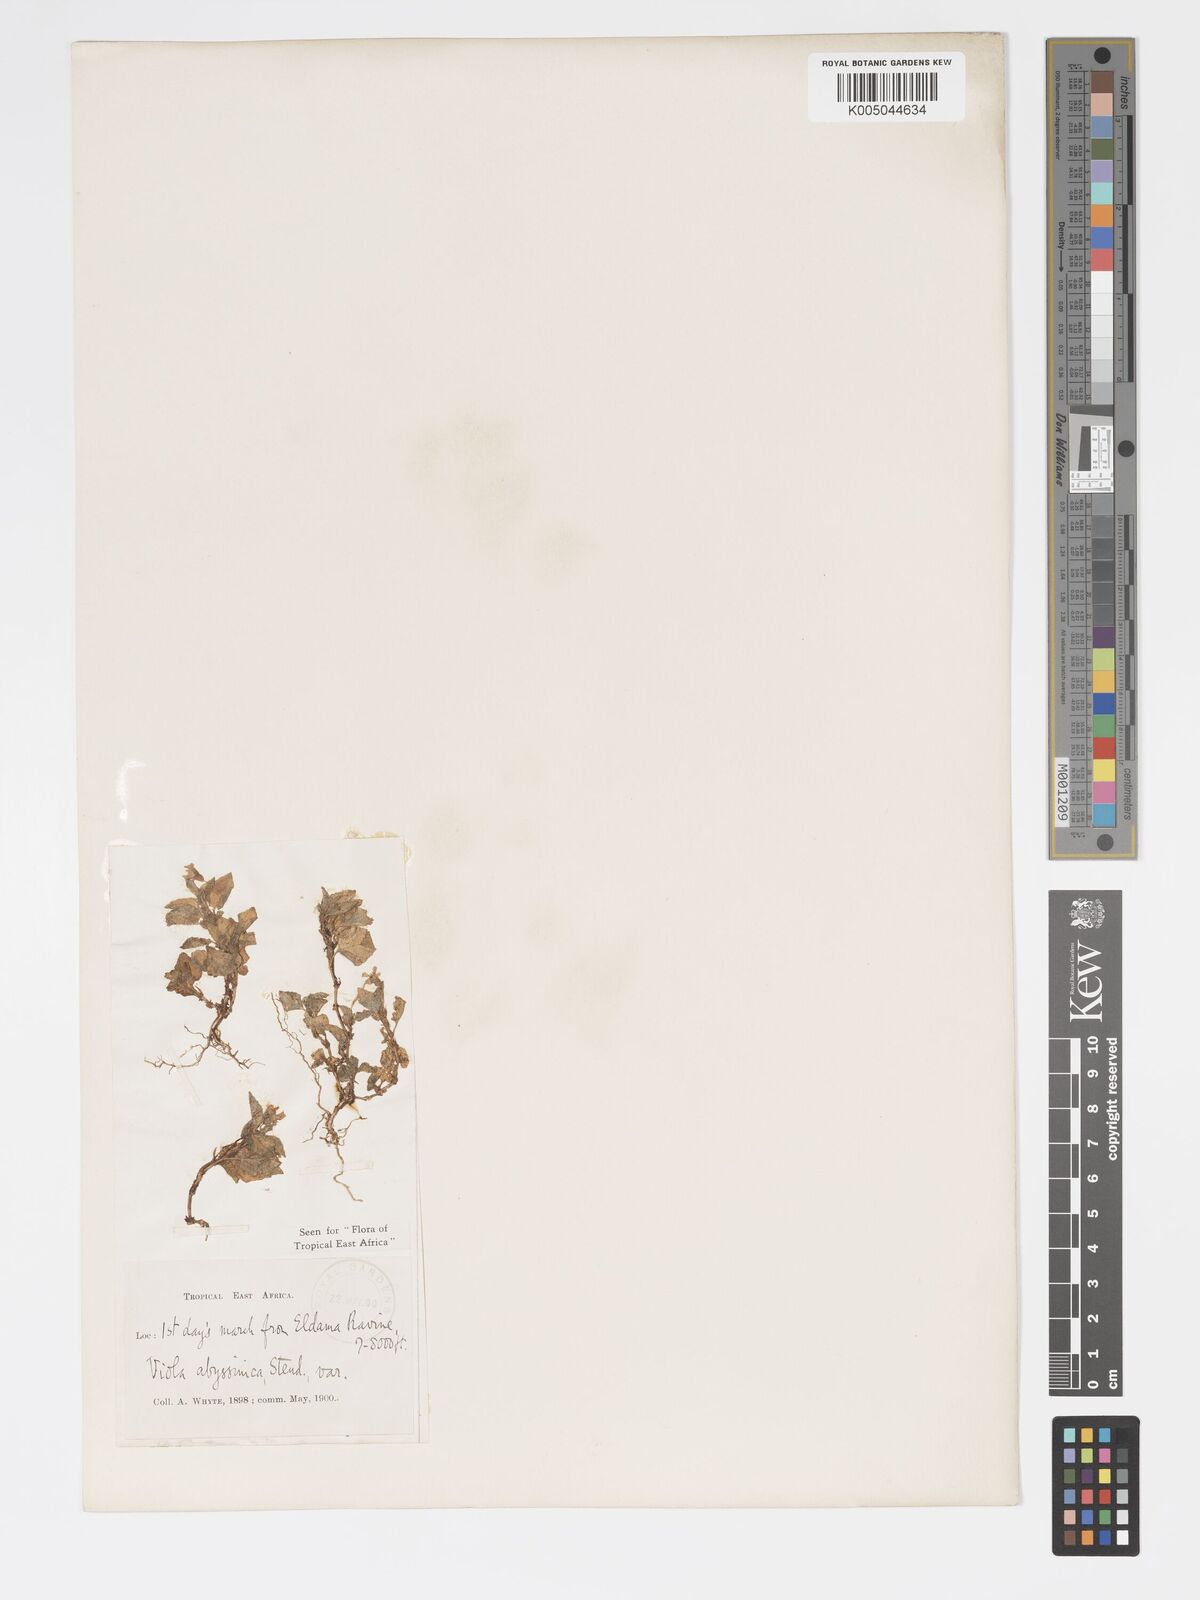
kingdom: Plantae
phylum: Tracheophyta
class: Magnoliopsida
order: Malpighiales
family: Violaceae
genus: Viola
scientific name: Viola abyssinica
